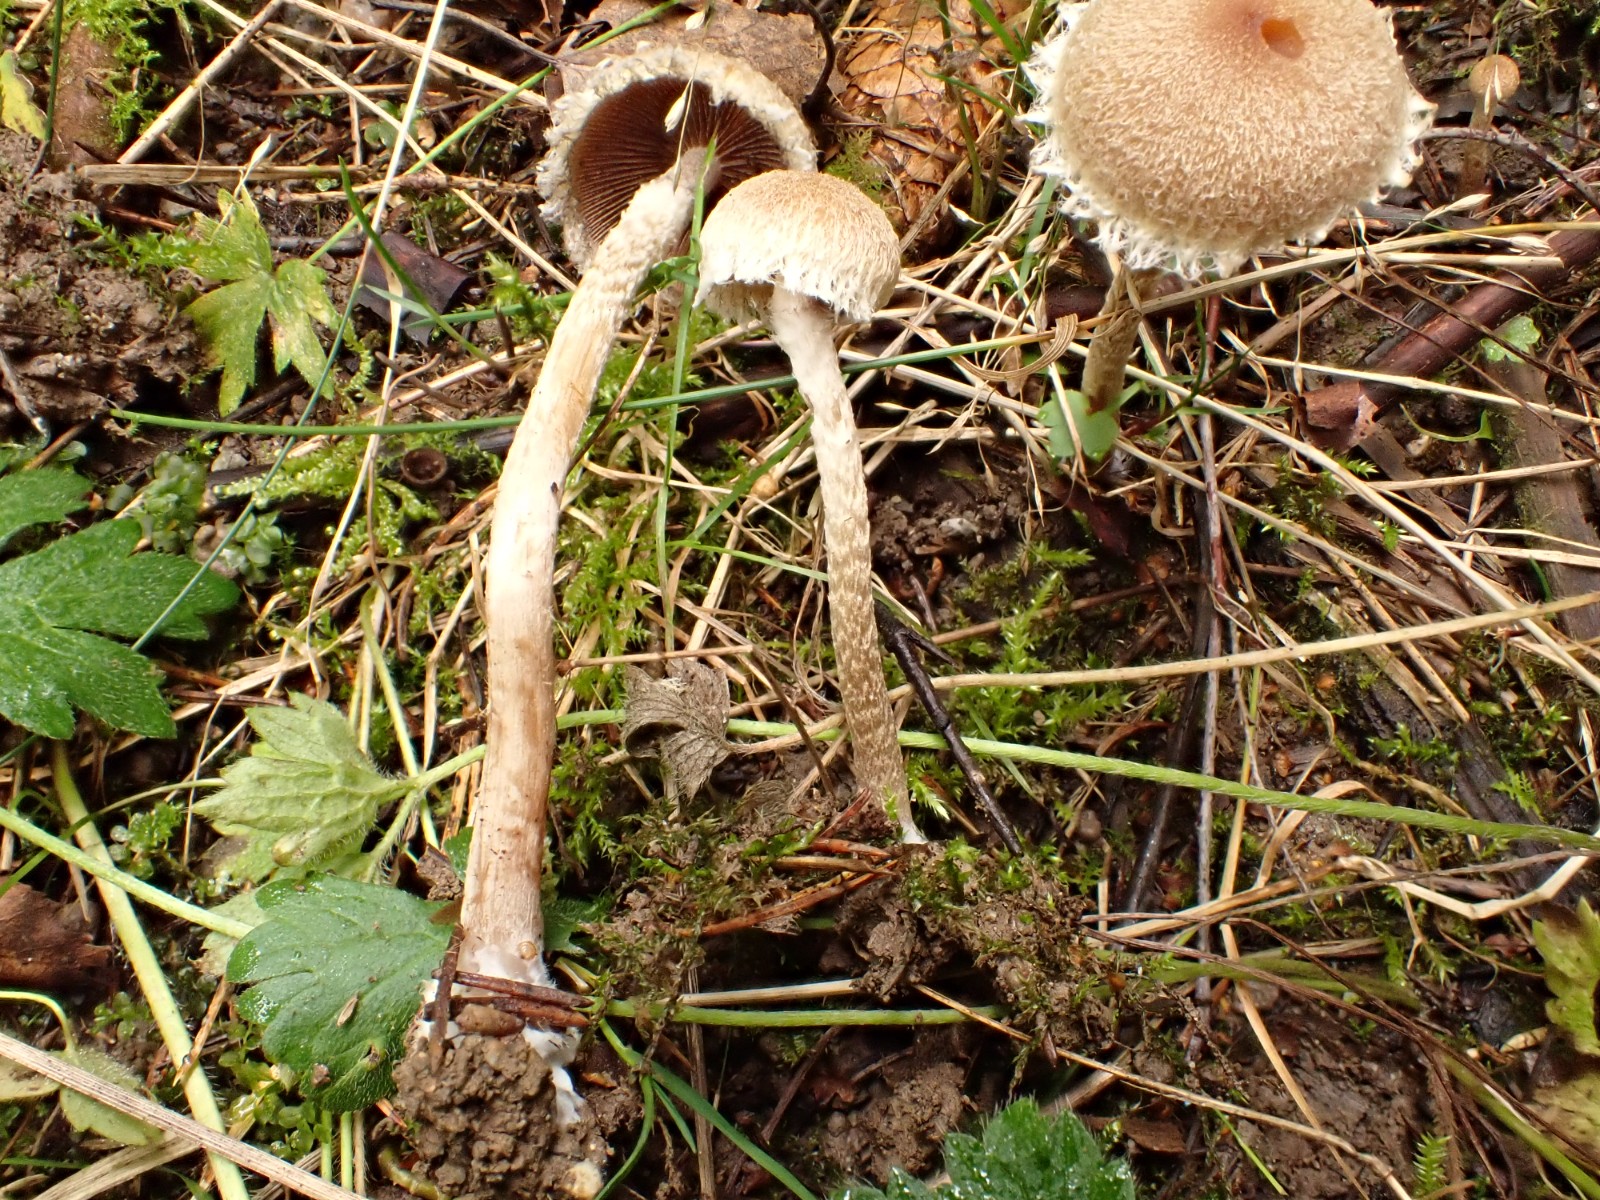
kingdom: Fungi
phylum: Basidiomycota
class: Agaricomycetes
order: Agaricales
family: Psathyrellaceae
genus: Lacrymaria
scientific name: Lacrymaria
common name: mørkhat
